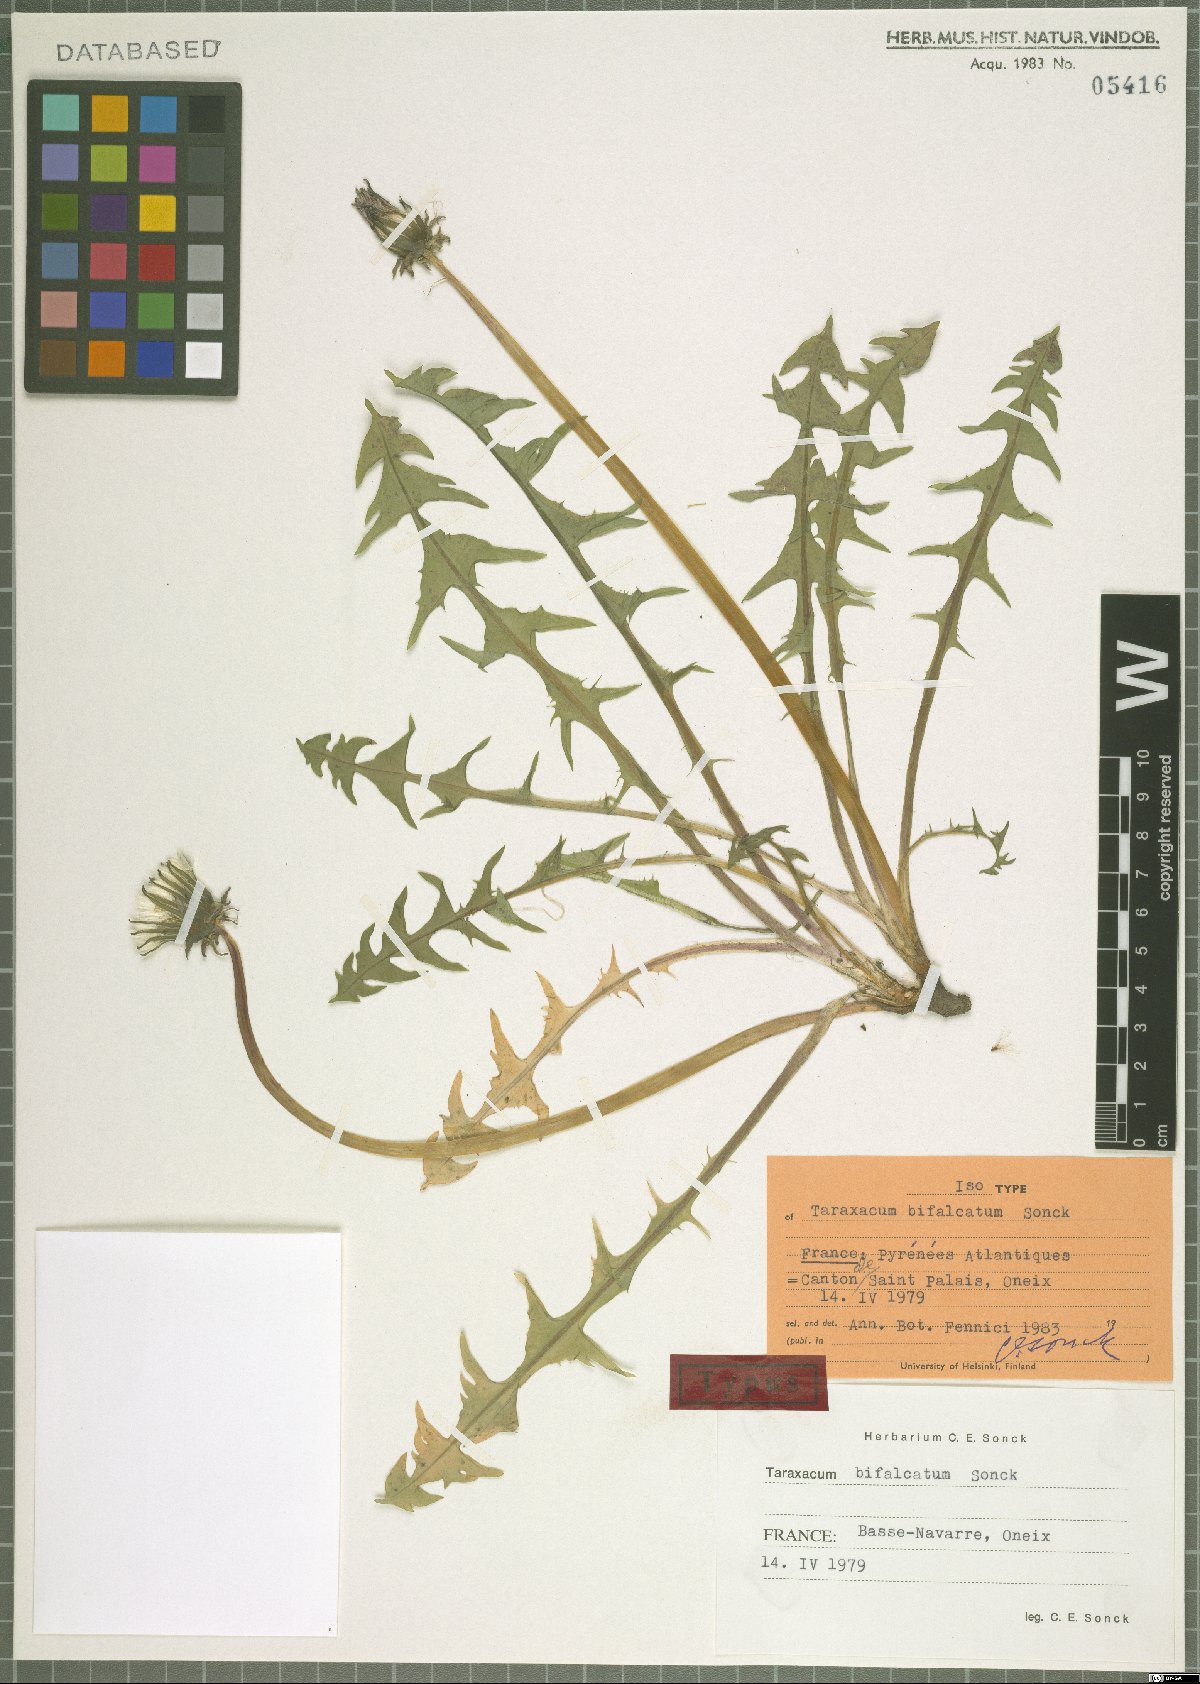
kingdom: Plantae
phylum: Tracheophyta
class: Magnoliopsida
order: Asterales
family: Asteraceae
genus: Taraxacum
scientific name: Taraxacum bifalcatum
